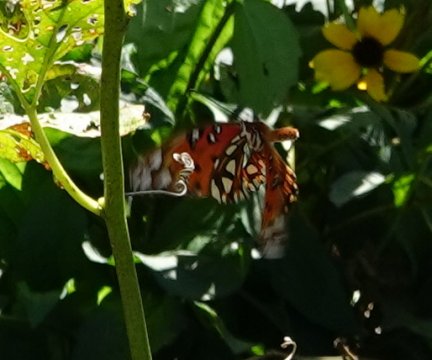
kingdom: Animalia
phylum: Arthropoda
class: Insecta
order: Lepidoptera
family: Nymphalidae
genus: Dione
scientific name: Dione vanillae
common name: Gulf Fritillary
